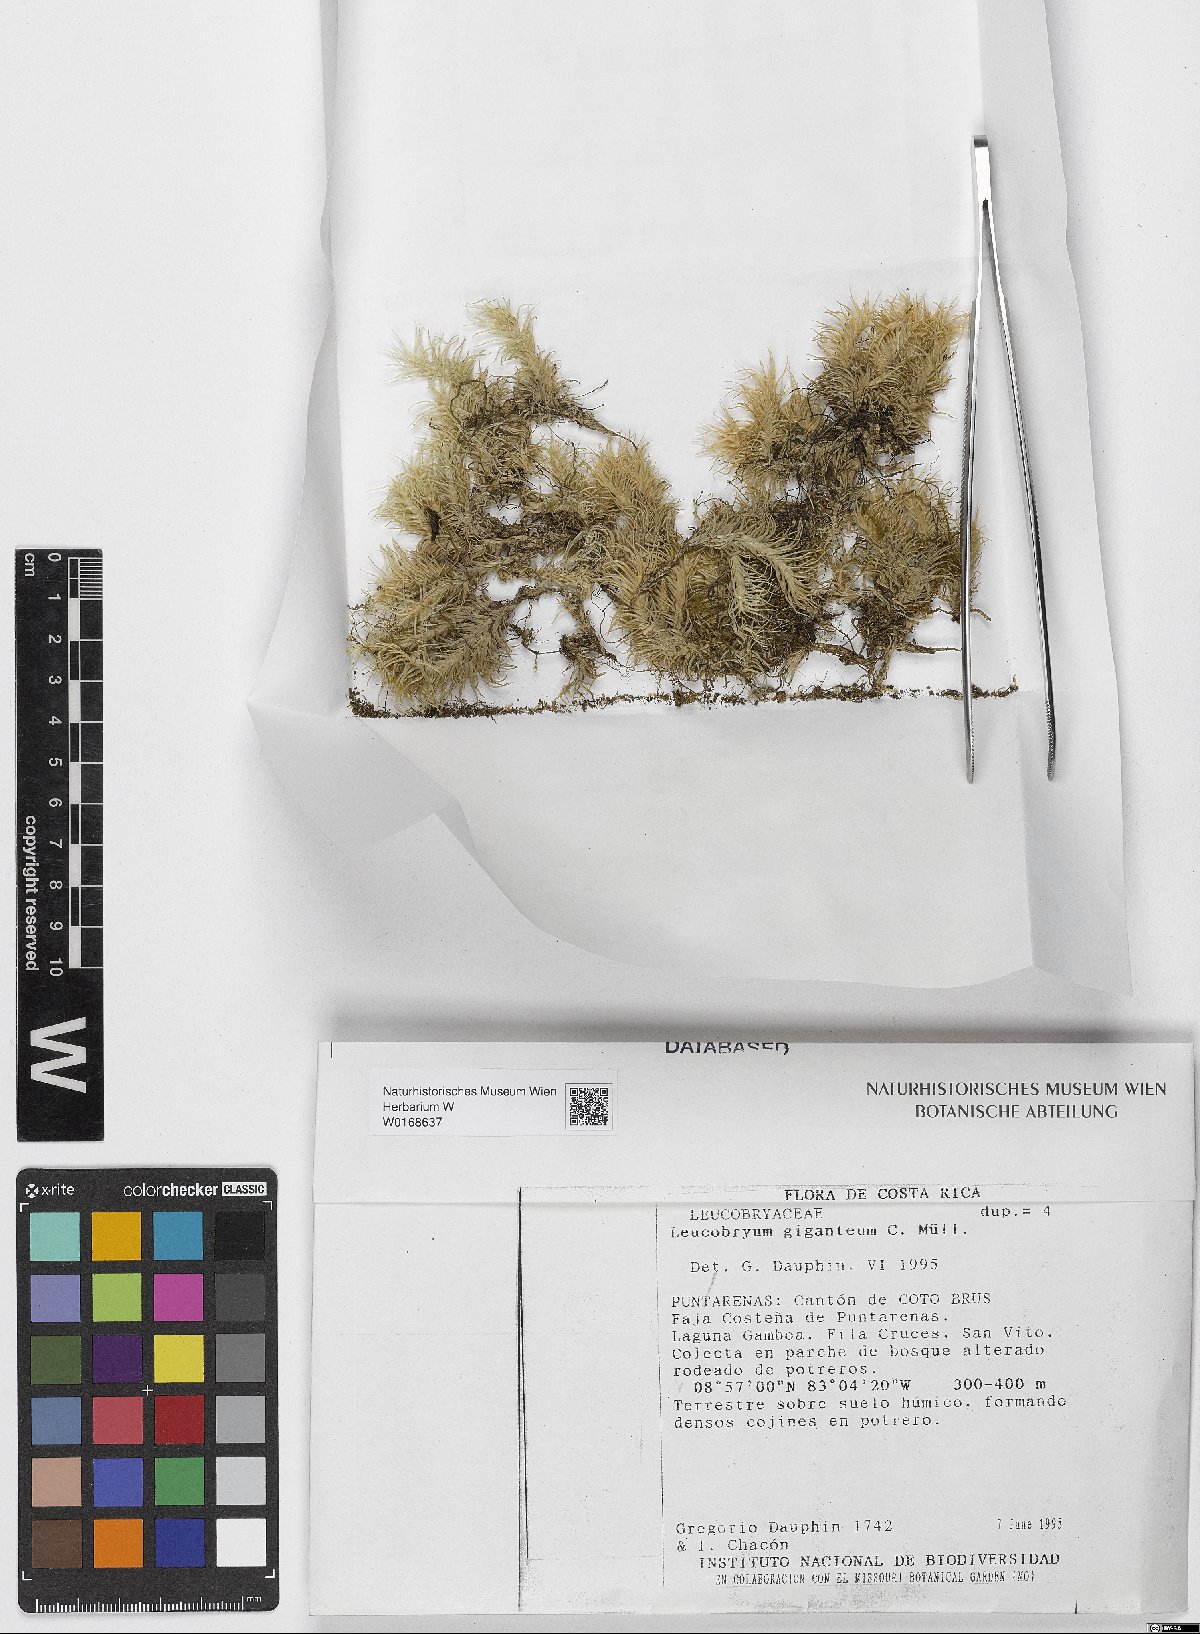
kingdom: Plantae
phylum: Bryophyta
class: Bryopsida
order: Dicranales
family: Leucobryaceae
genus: Leucobryum
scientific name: Leucobryum giganteum
